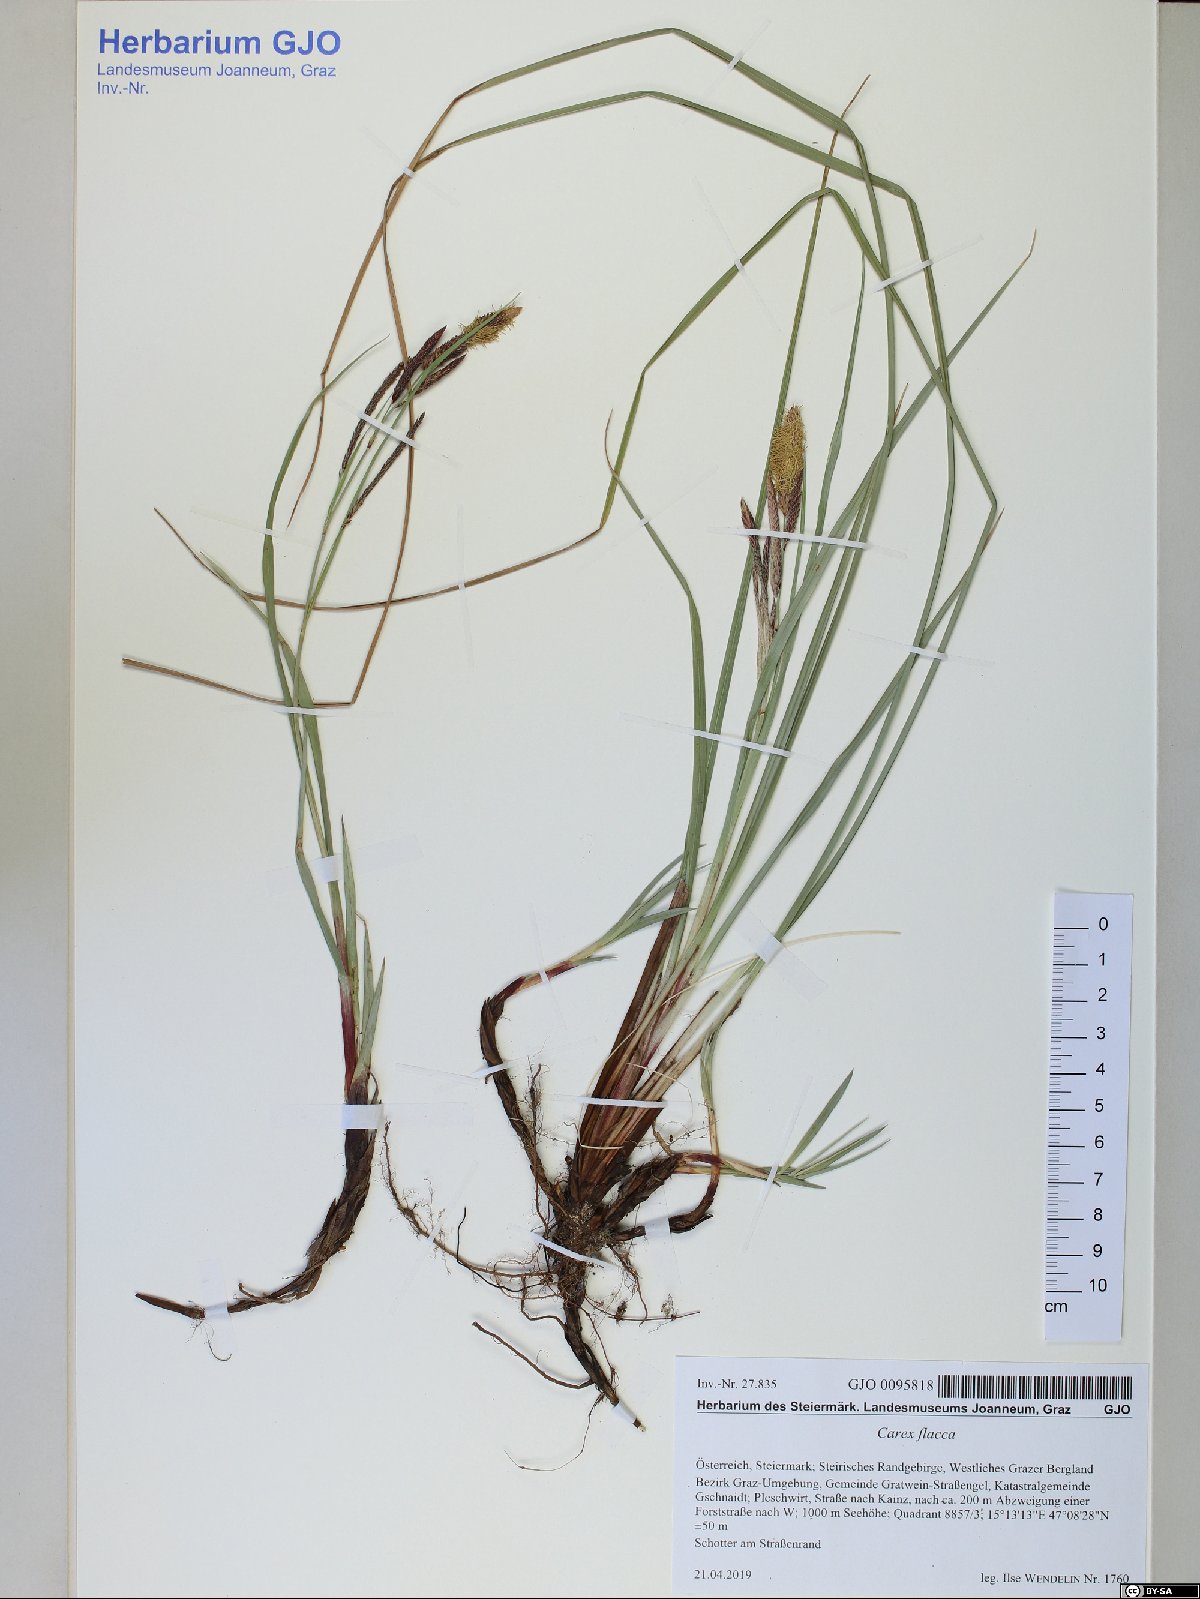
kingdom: Plantae
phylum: Tracheophyta
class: Liliopsida
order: Poales
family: Cyperaceae
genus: Carex
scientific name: Carex flacca
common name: Glaucous sedge
